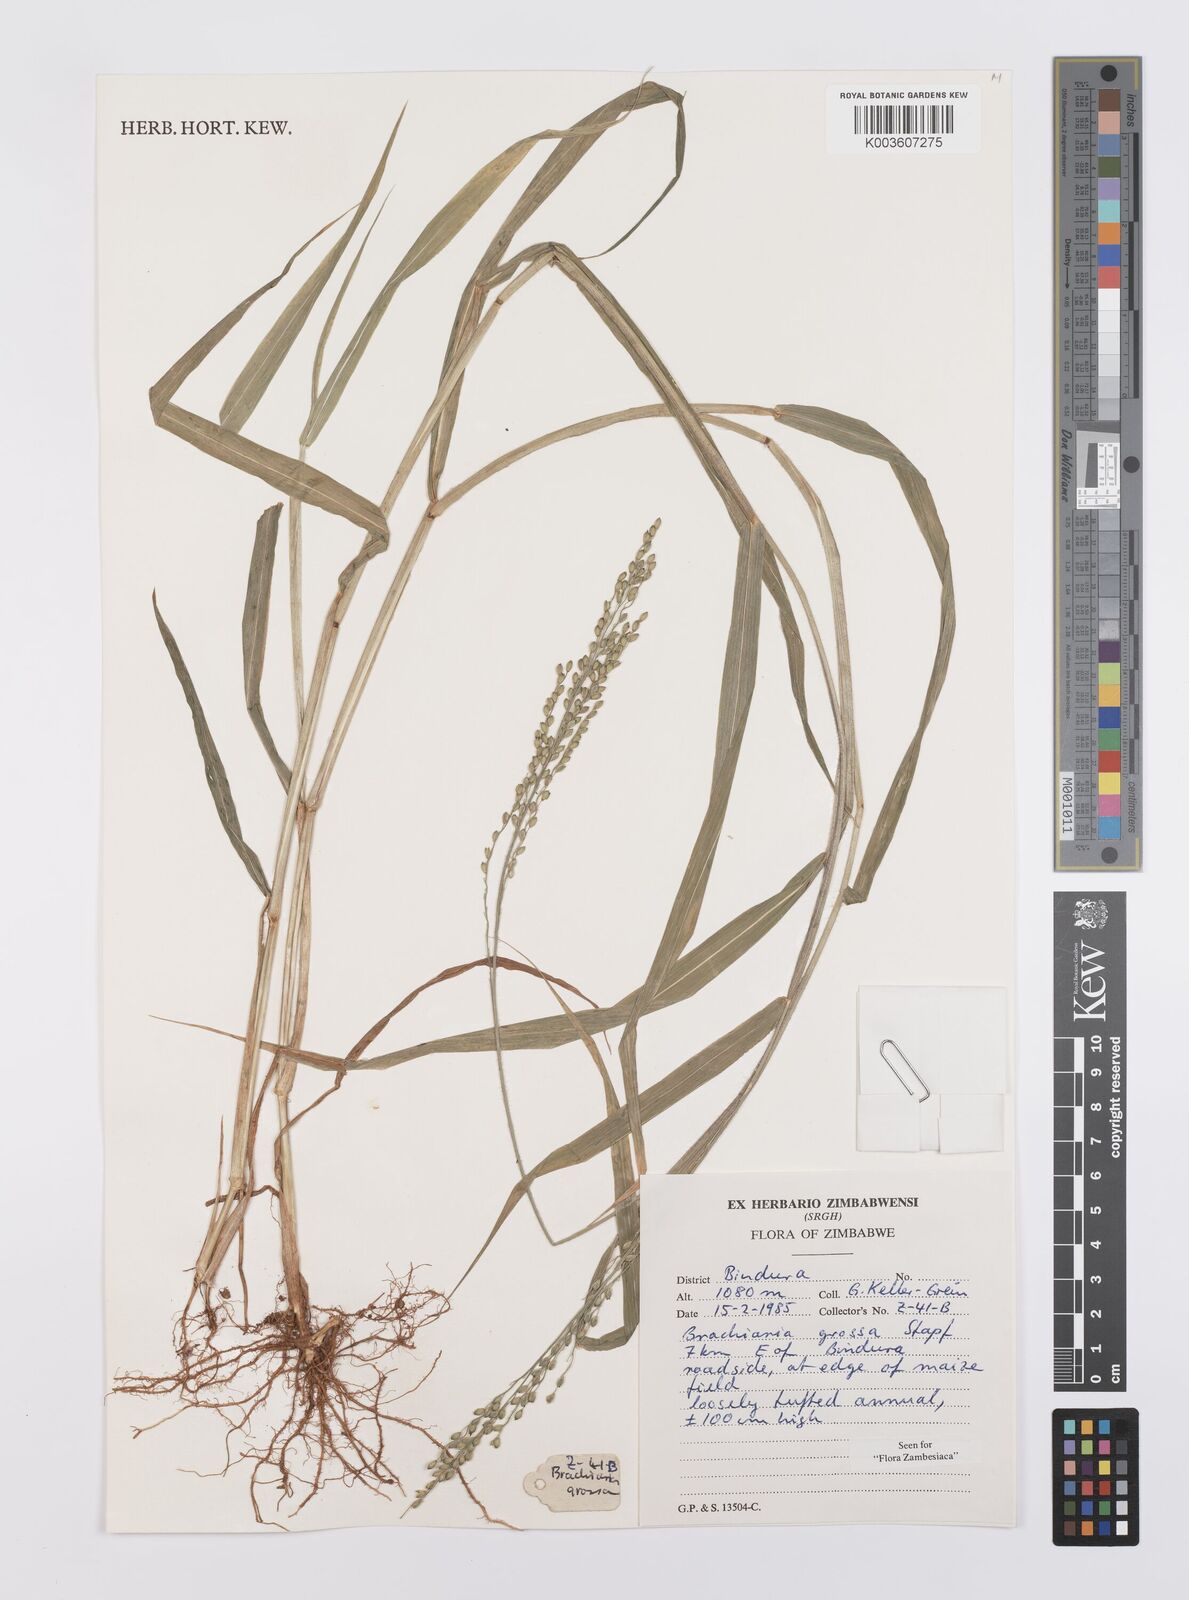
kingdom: Plantae
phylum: Tracheophyta
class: Liliopsida
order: Poales
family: Poaceae
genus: Urochloa
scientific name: Urochloa Brachiaria grossa
